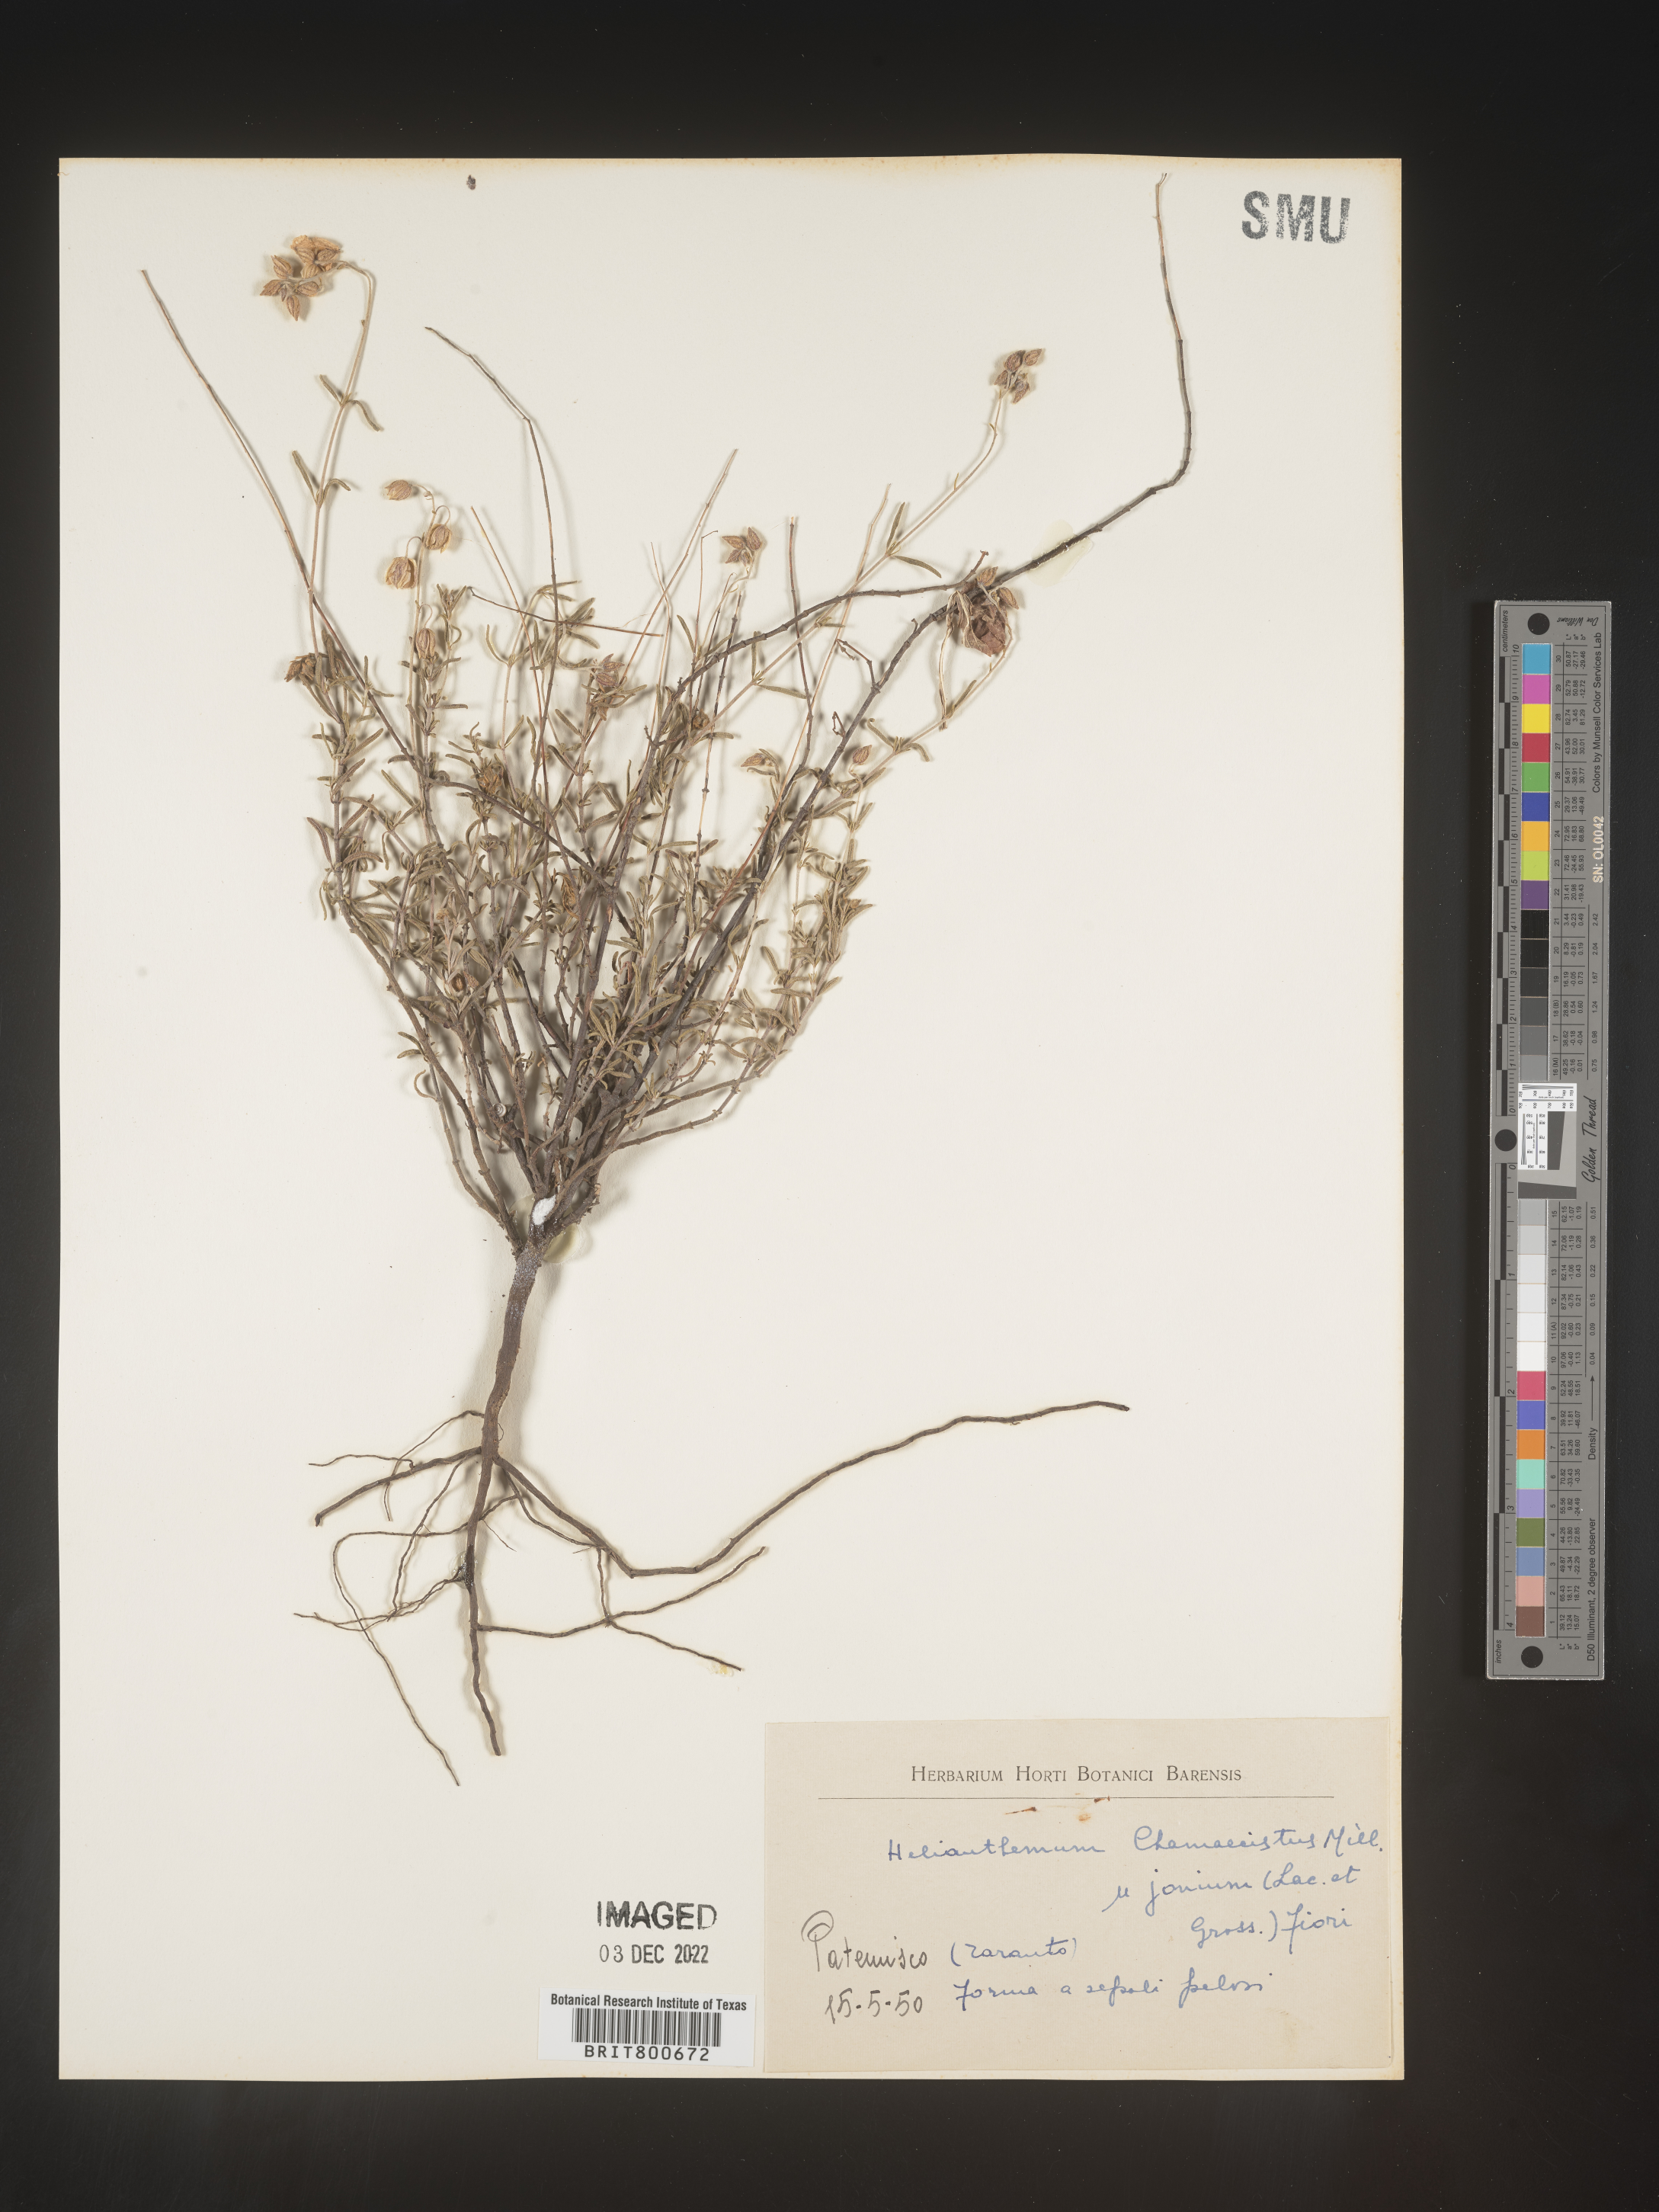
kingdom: Plantae
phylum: Tracheophyta
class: Magnoliopsida
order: Malvales
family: Cistaceae
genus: Helianthemum
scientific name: Helianthemum
